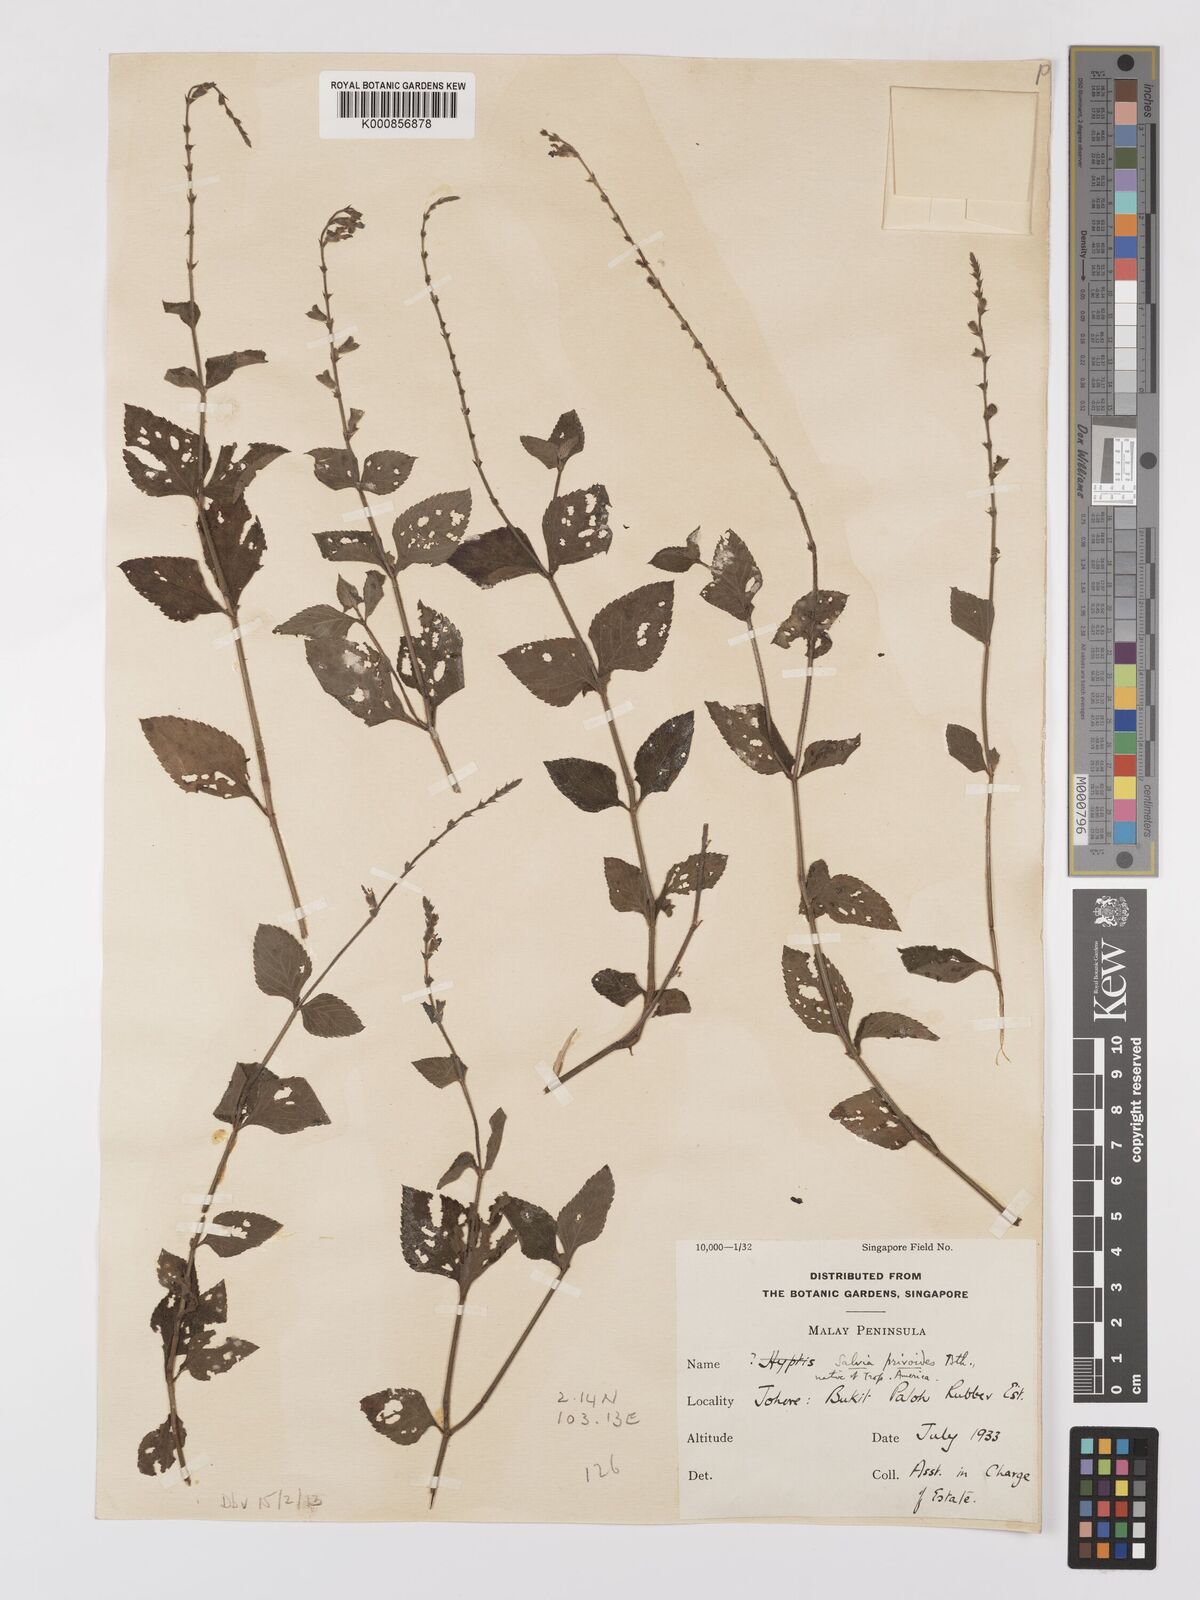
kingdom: Plantae
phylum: Tracheophyta
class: Magnoliopsida
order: Lamiales
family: Lamiaceae
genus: Salvia
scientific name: Salvia misella
